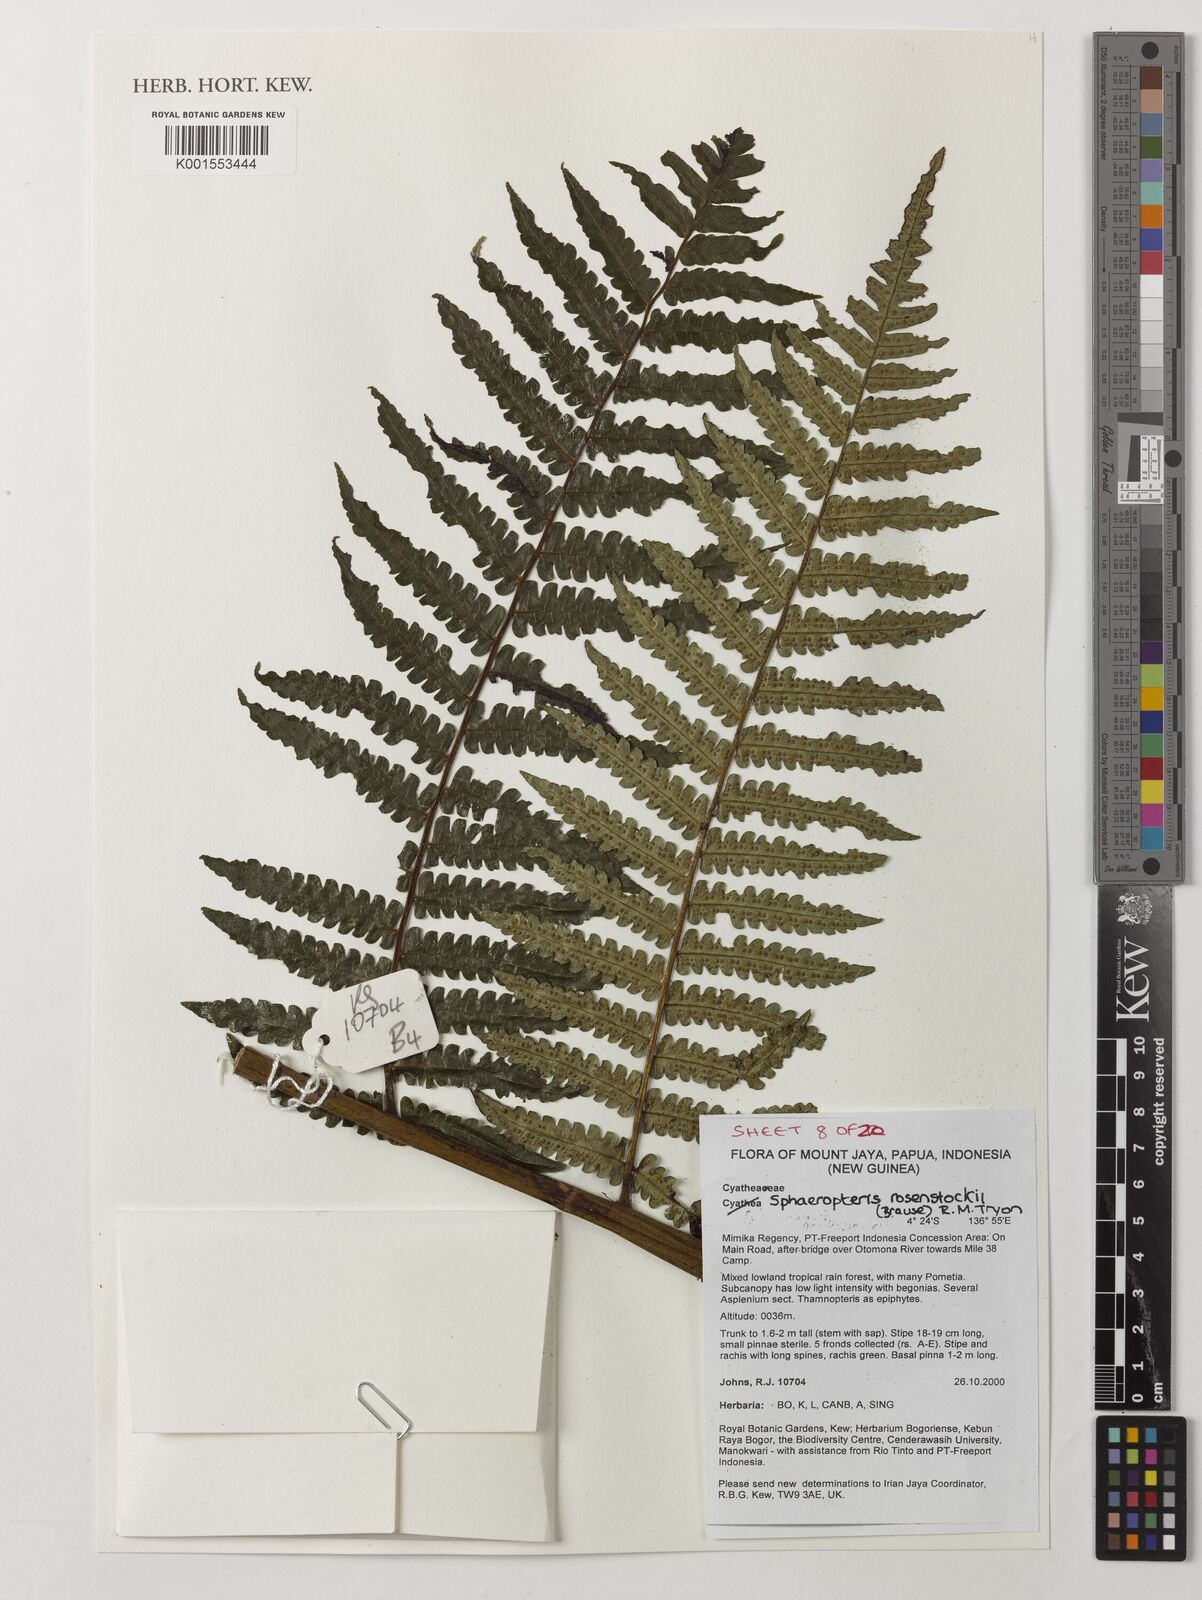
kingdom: Plantae
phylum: Tracheophyta
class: Polypodiopsida
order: Cyatheales
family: Cyatheaceae
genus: Sphaeropteris
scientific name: Sphaeropteris rosenstockii
